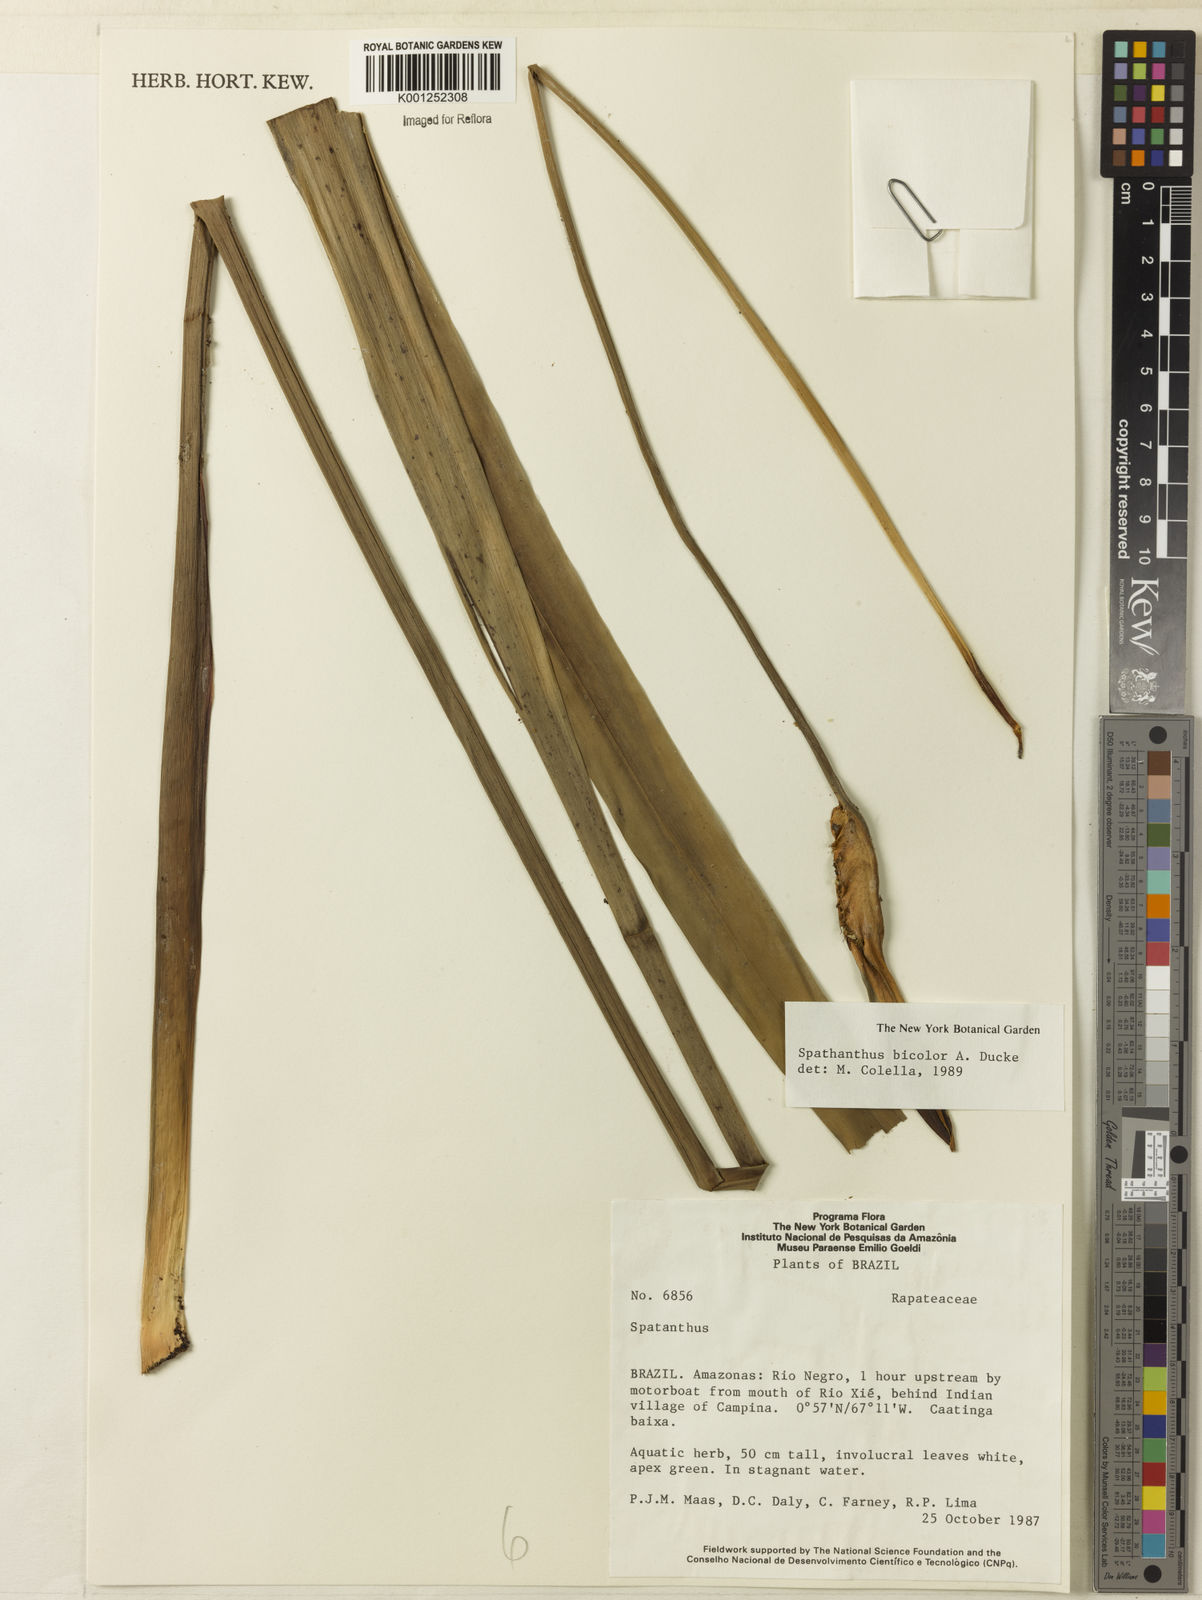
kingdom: Plantae
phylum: Tracheophyta
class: Liliopsida
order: Poales
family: Rapateaceae
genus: Spathanthus
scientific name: Spathanthus bicolor
